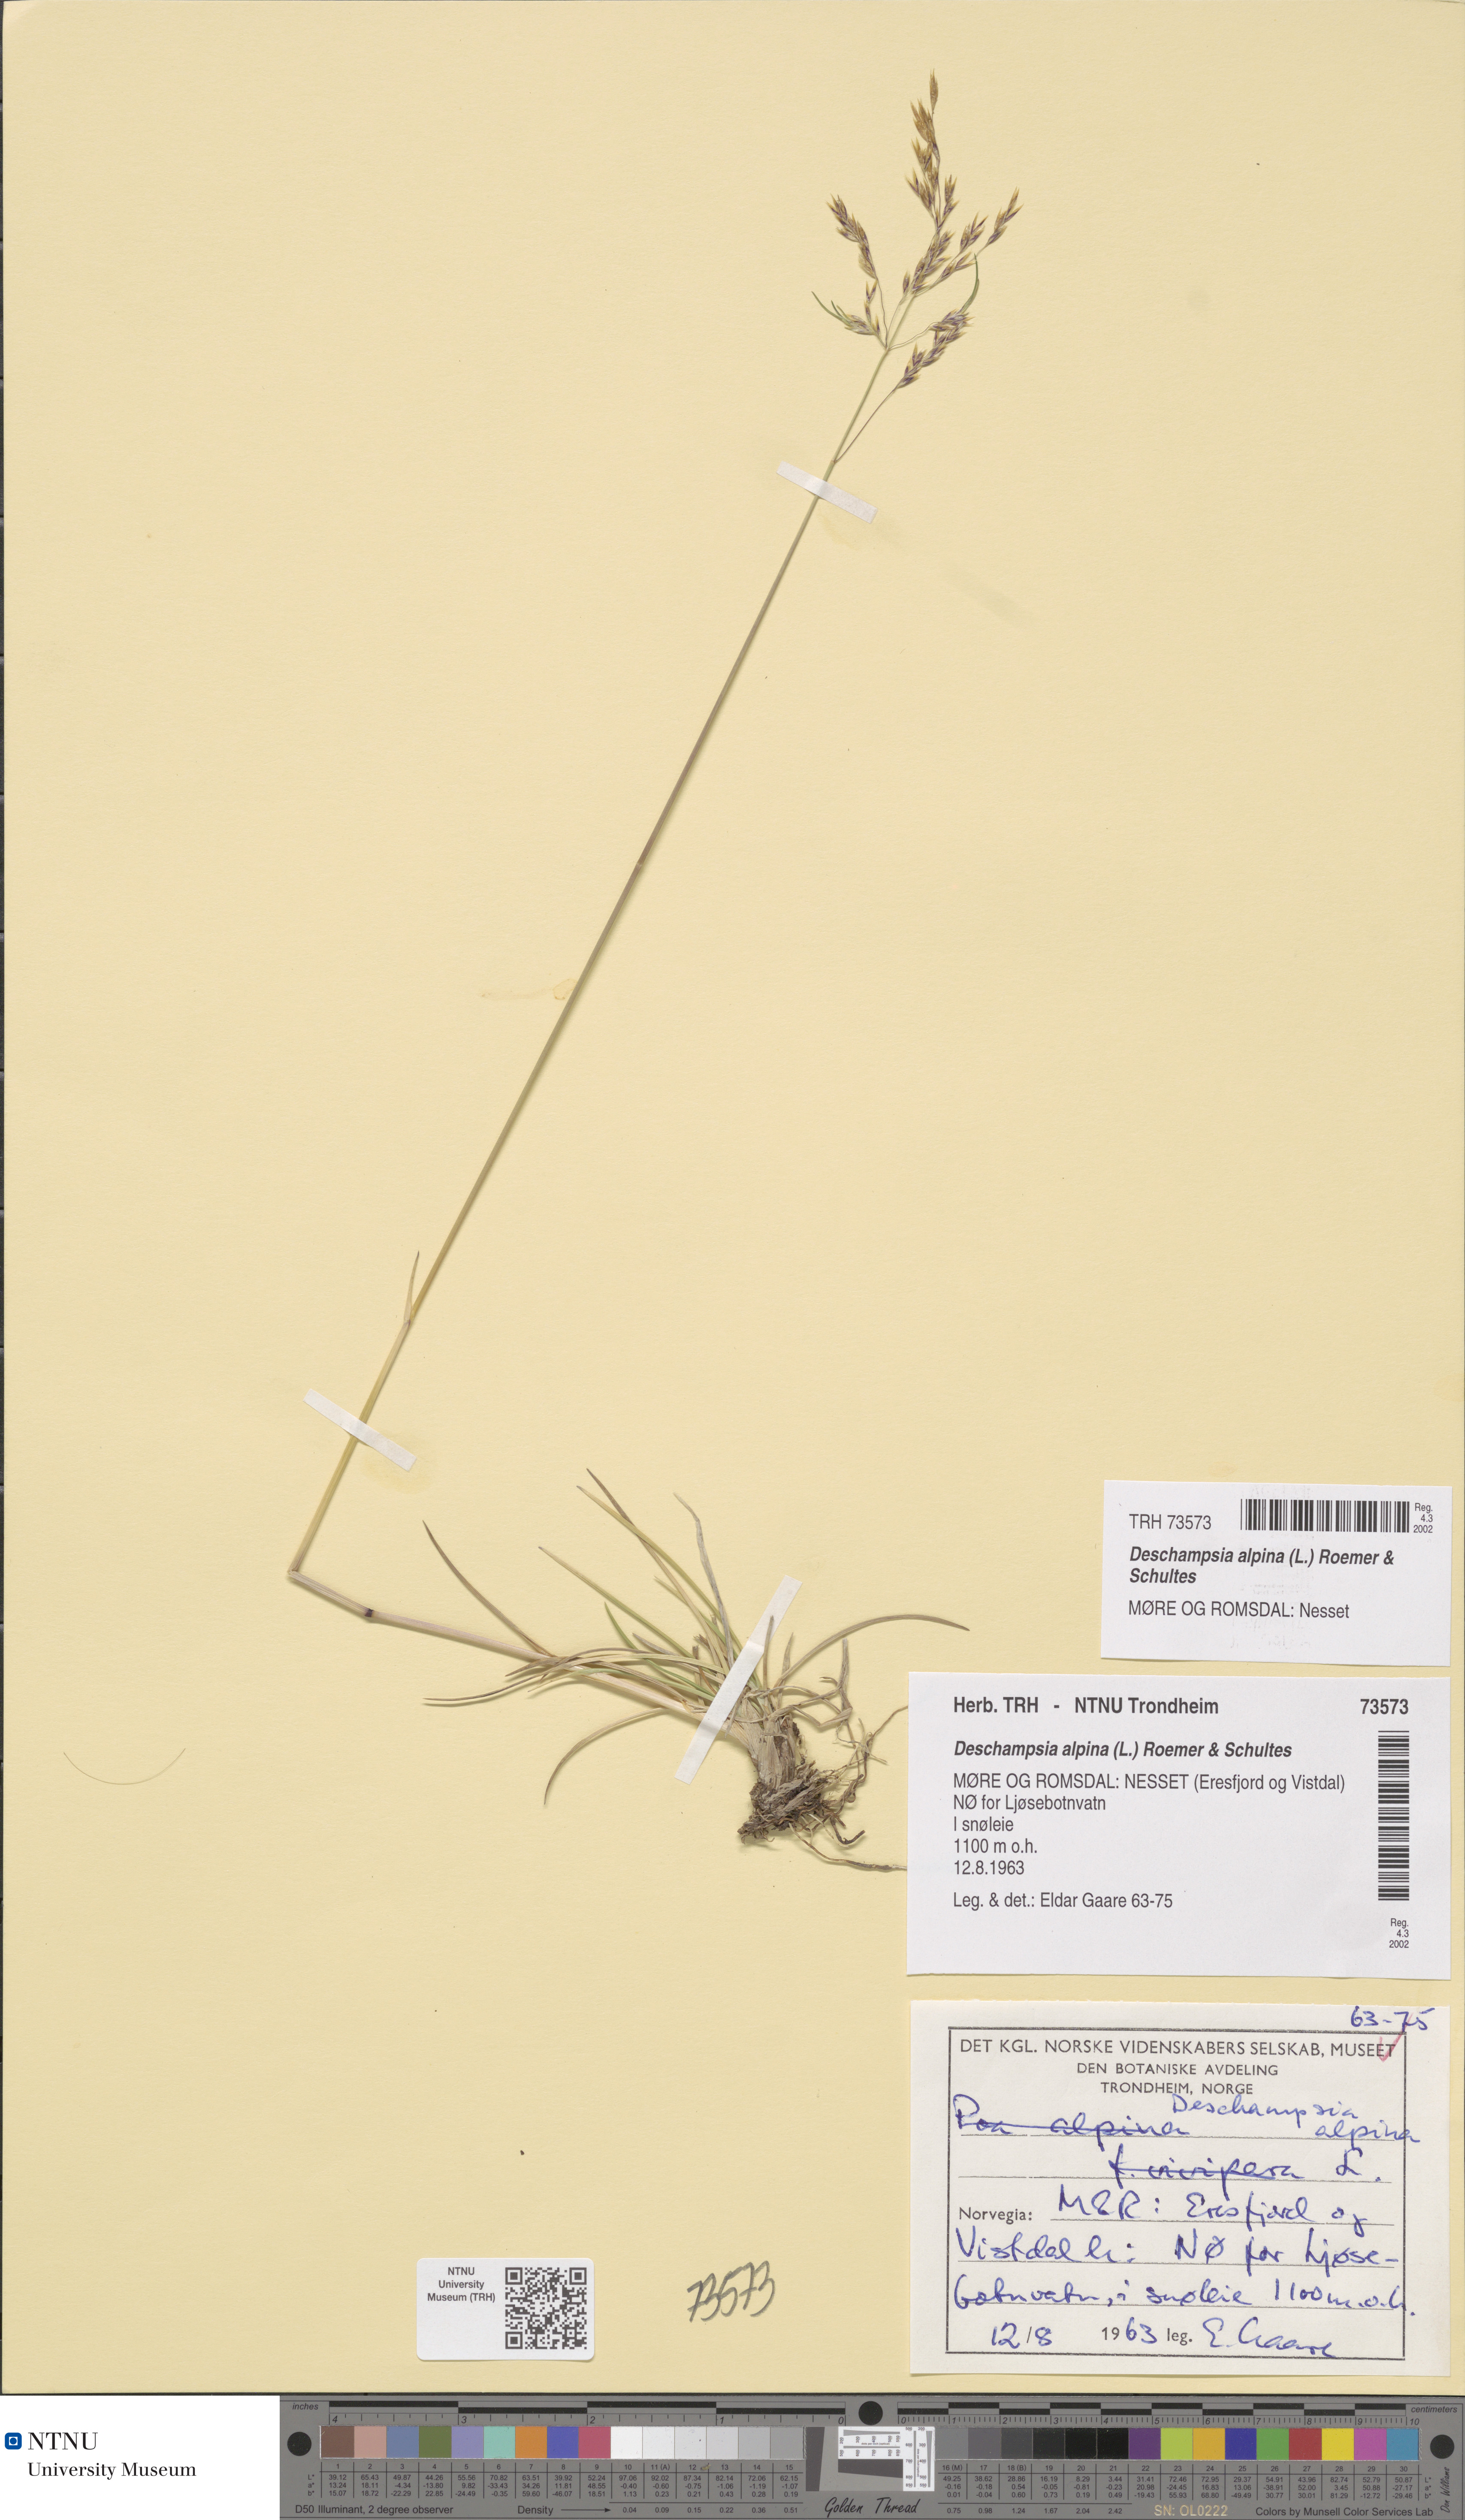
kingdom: Plantae
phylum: Tracheophyta
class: Liliopsida
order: Poales
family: Poaceae
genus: Deschampsia
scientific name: Deschampsia cespitosa
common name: Tufted hair-grass
